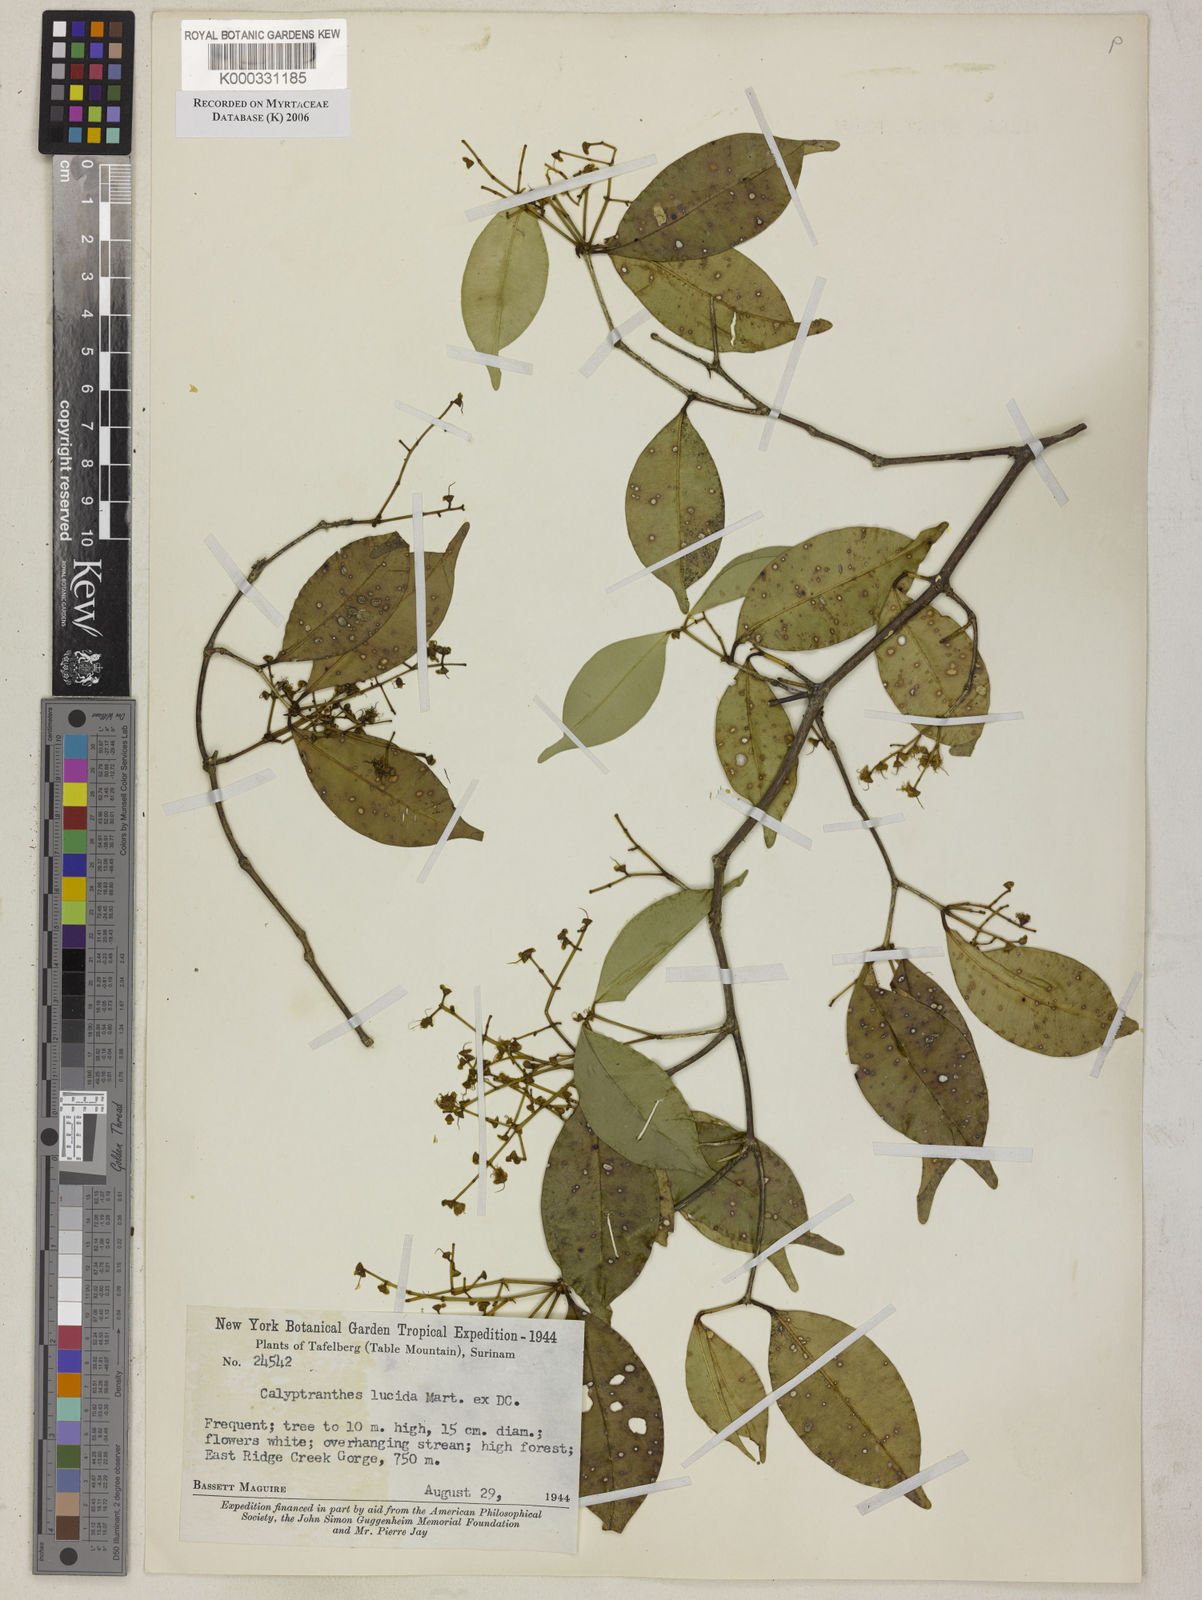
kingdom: Plantae
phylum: Tracheophyta
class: Magnoliopsida
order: Myrtales
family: Myrtaceae
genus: Myrcia
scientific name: Myrcia neolucida
